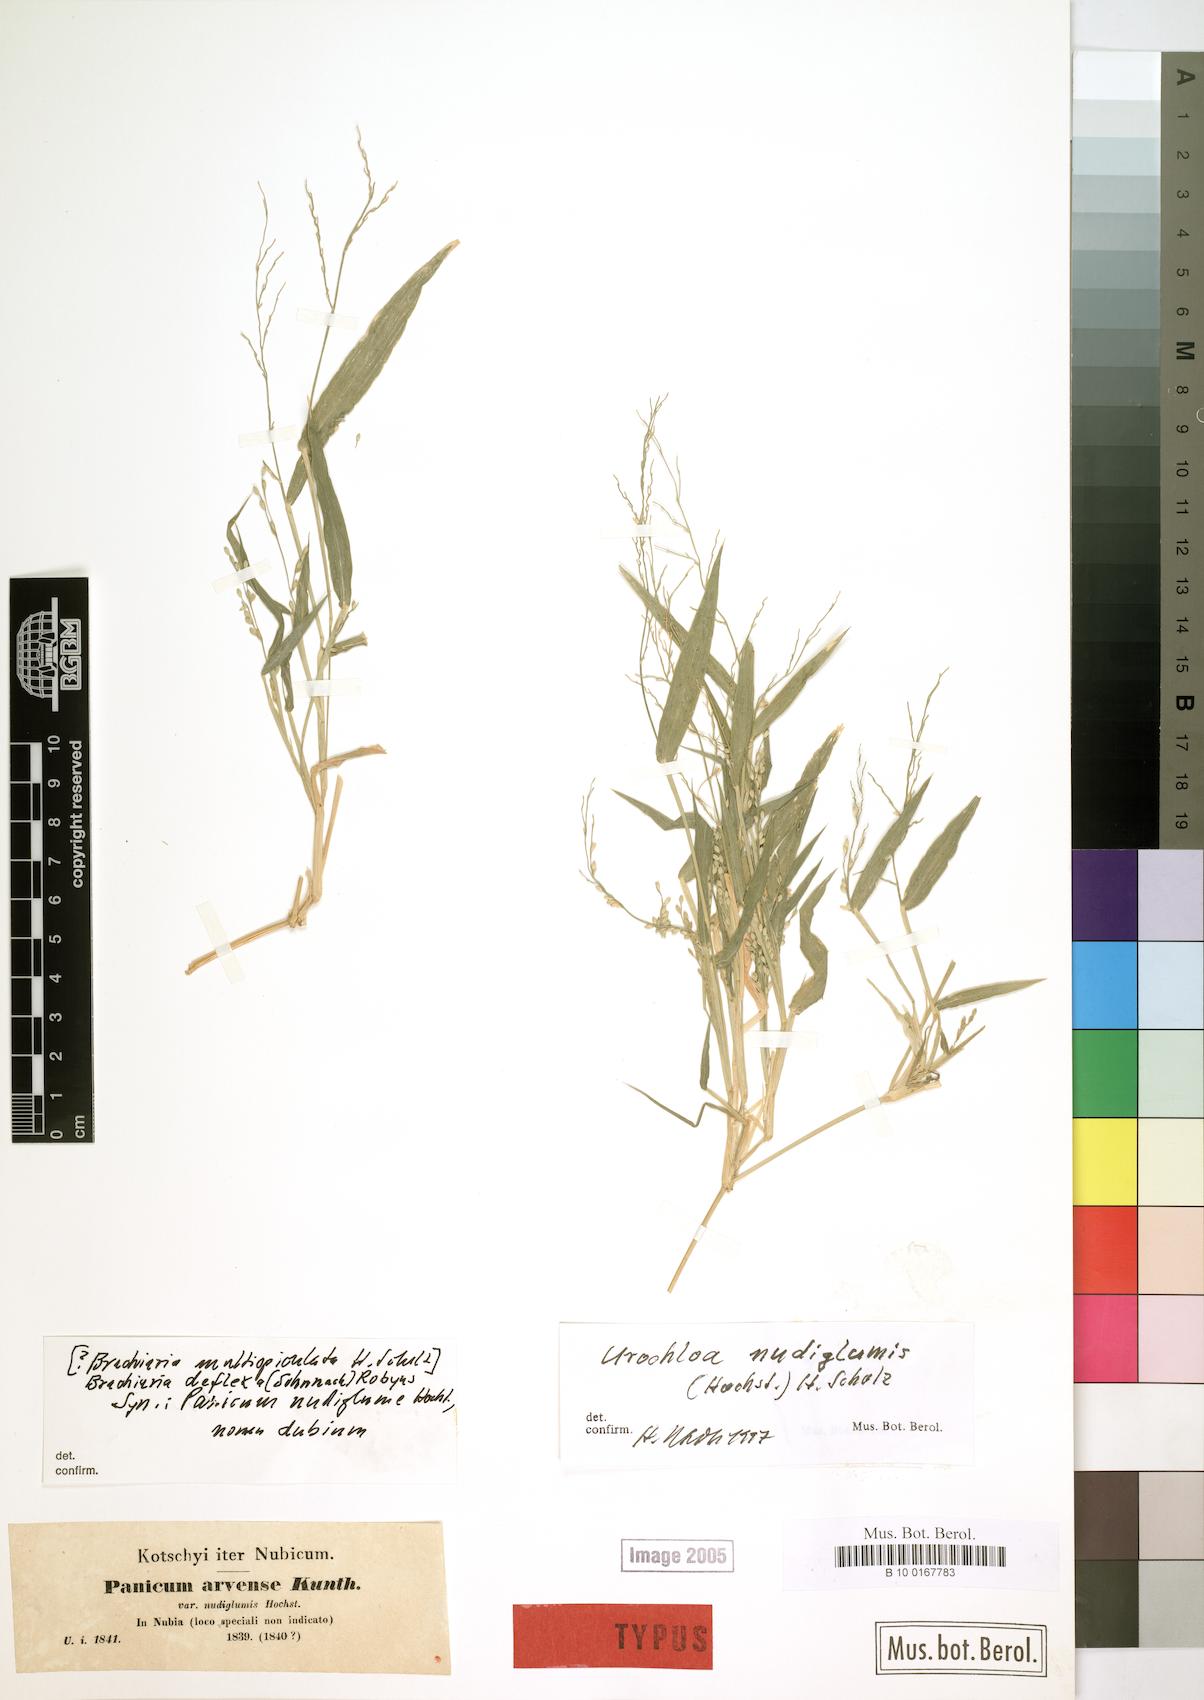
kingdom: Plantae
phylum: Tracheophyta
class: Liliopsida
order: Poales
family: Poaceae
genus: Urochloa
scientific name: Urochloa
